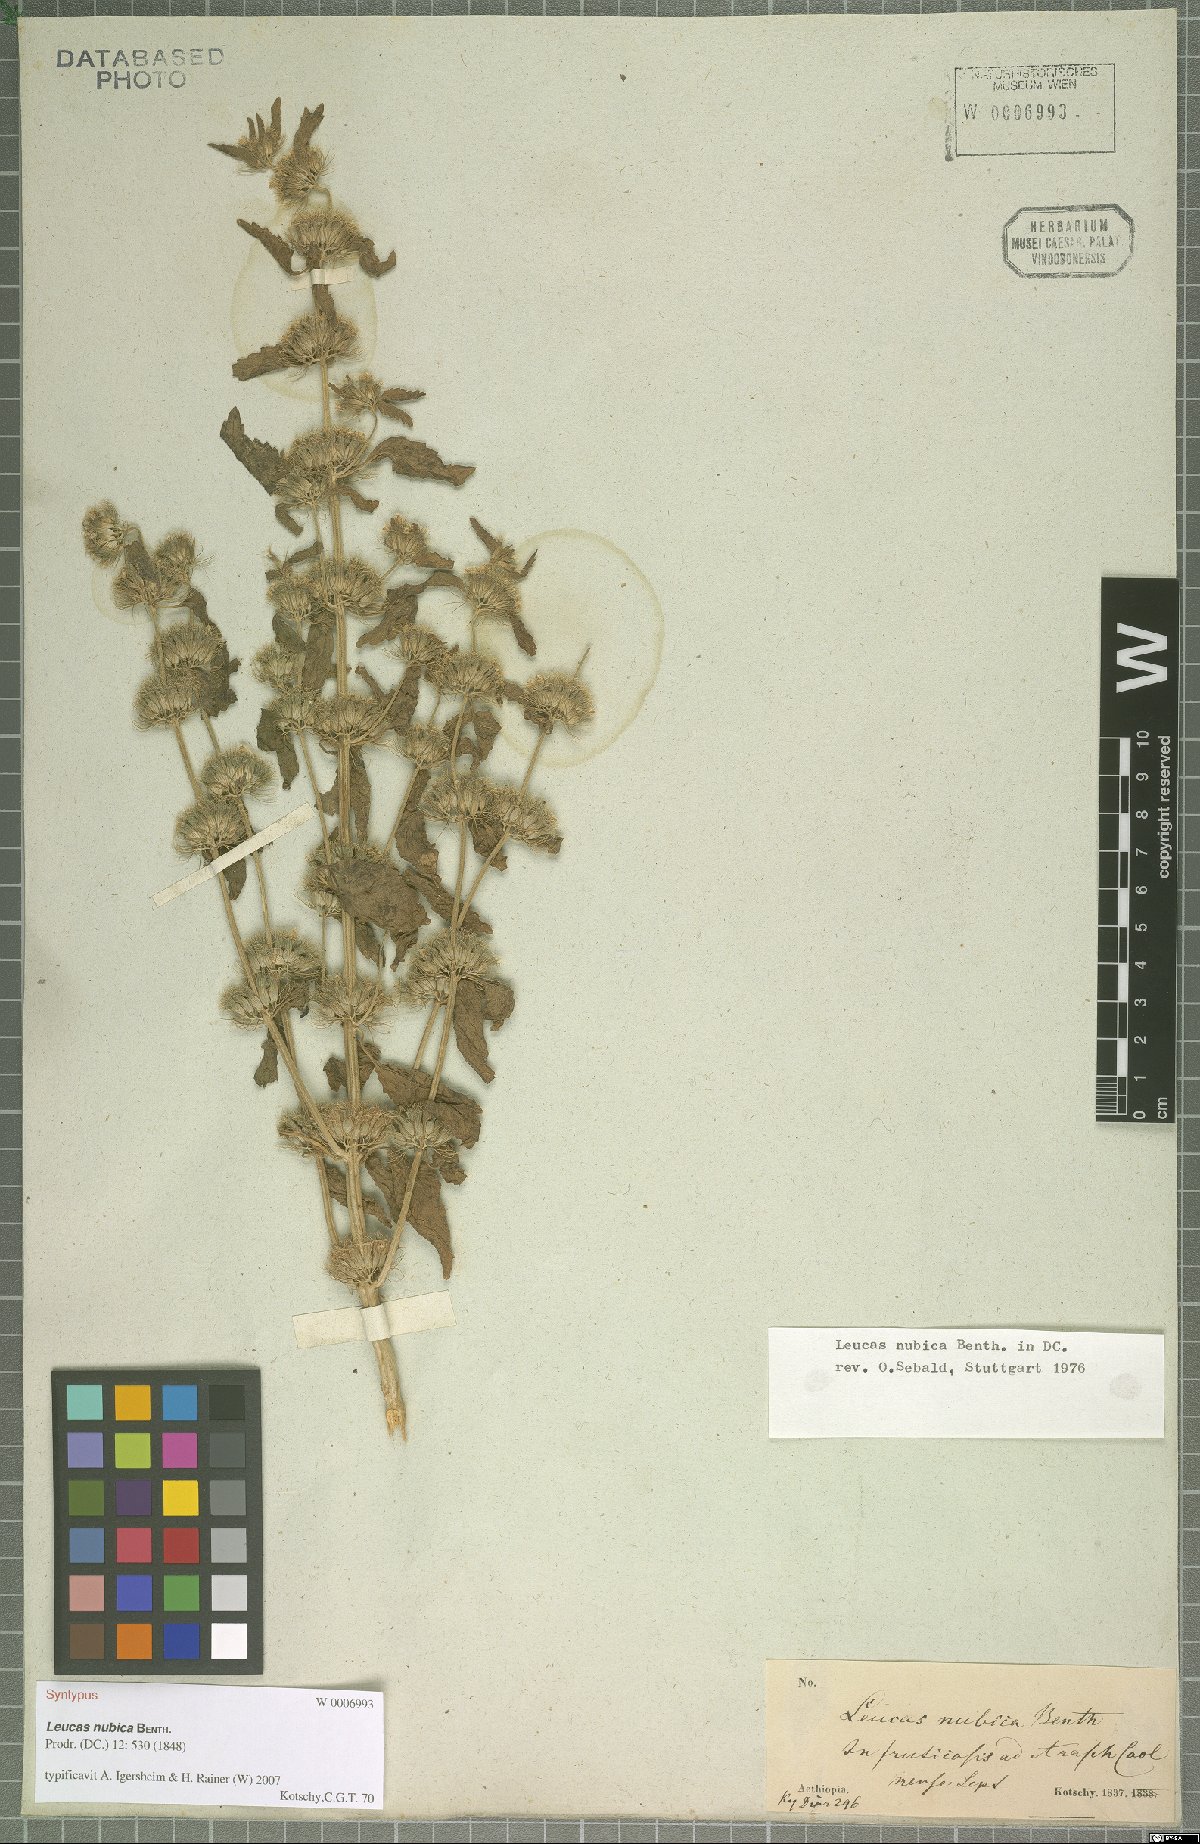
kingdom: Plantae
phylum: Tracheophyta
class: Magnoliopsida
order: Lamiales
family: Lamiaceae
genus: Leucas
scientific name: Leucas nubica
